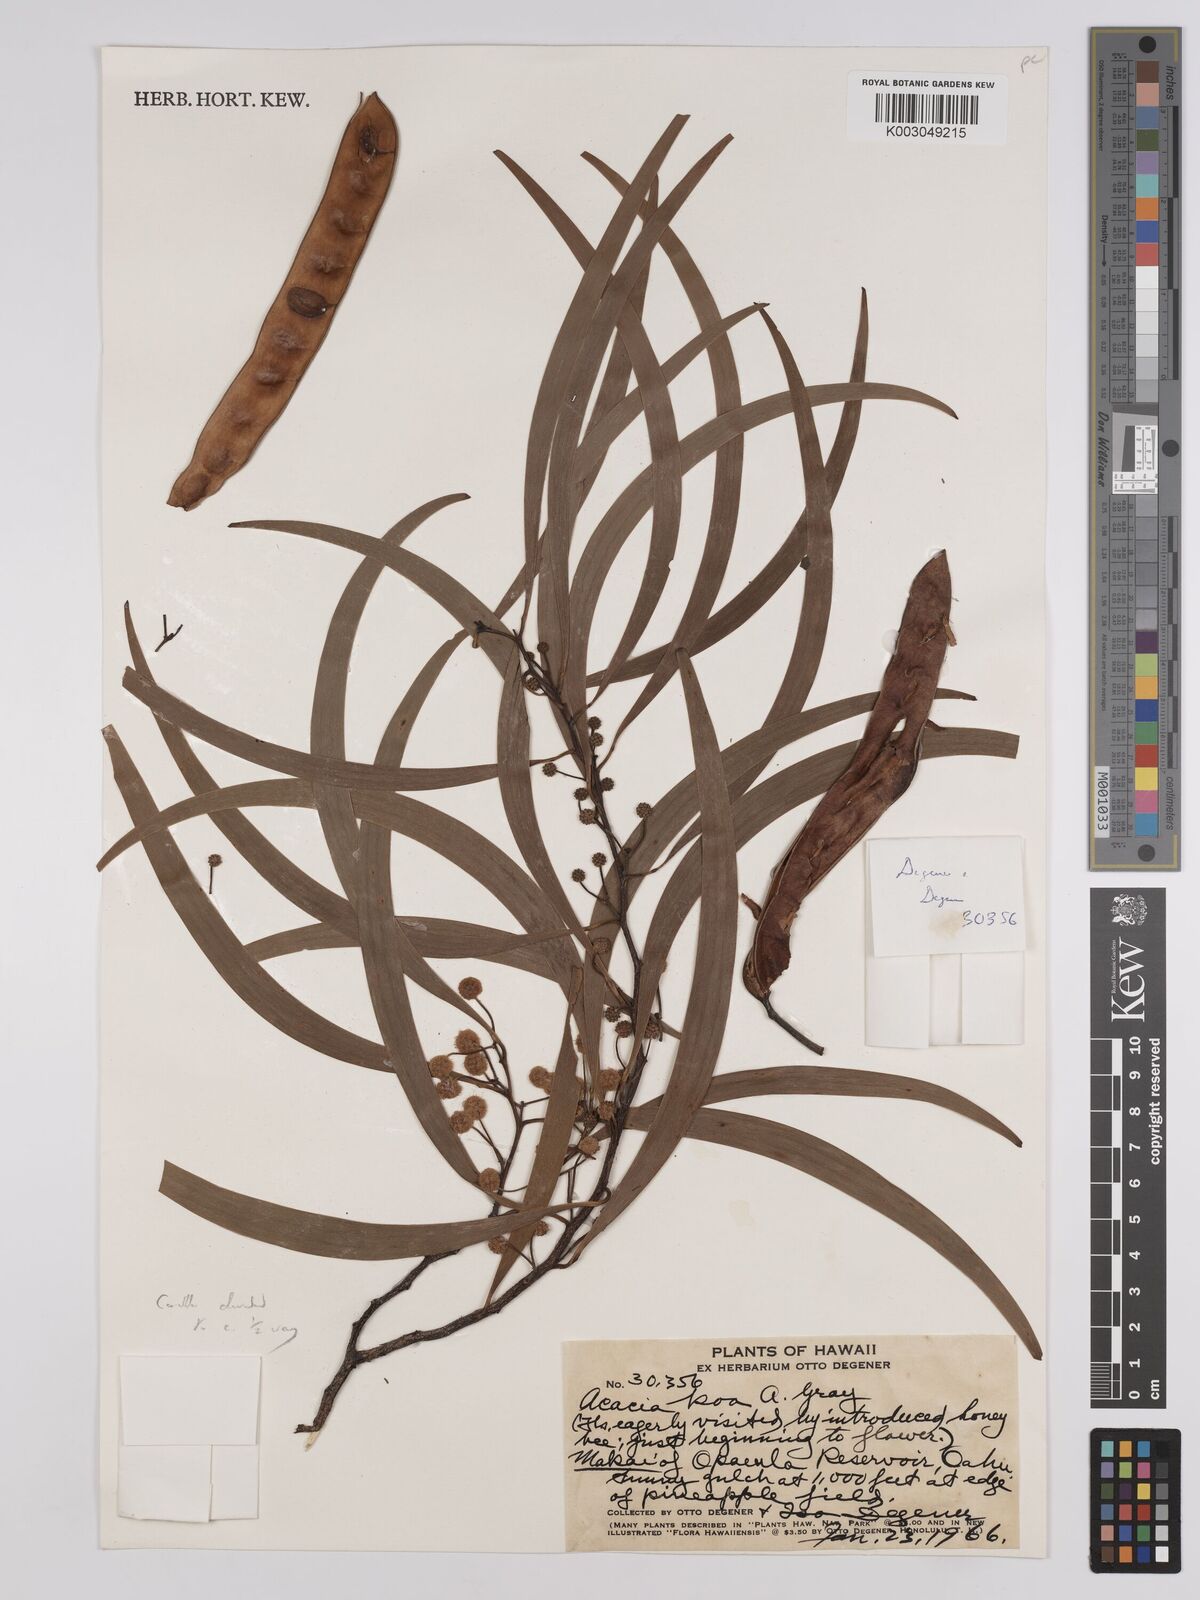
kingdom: Plantae
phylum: Tracheophyta
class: Magnoliopsida
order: Fabales
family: Fabaceae
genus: Acacia
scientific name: Acacia koa
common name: Gray koa
